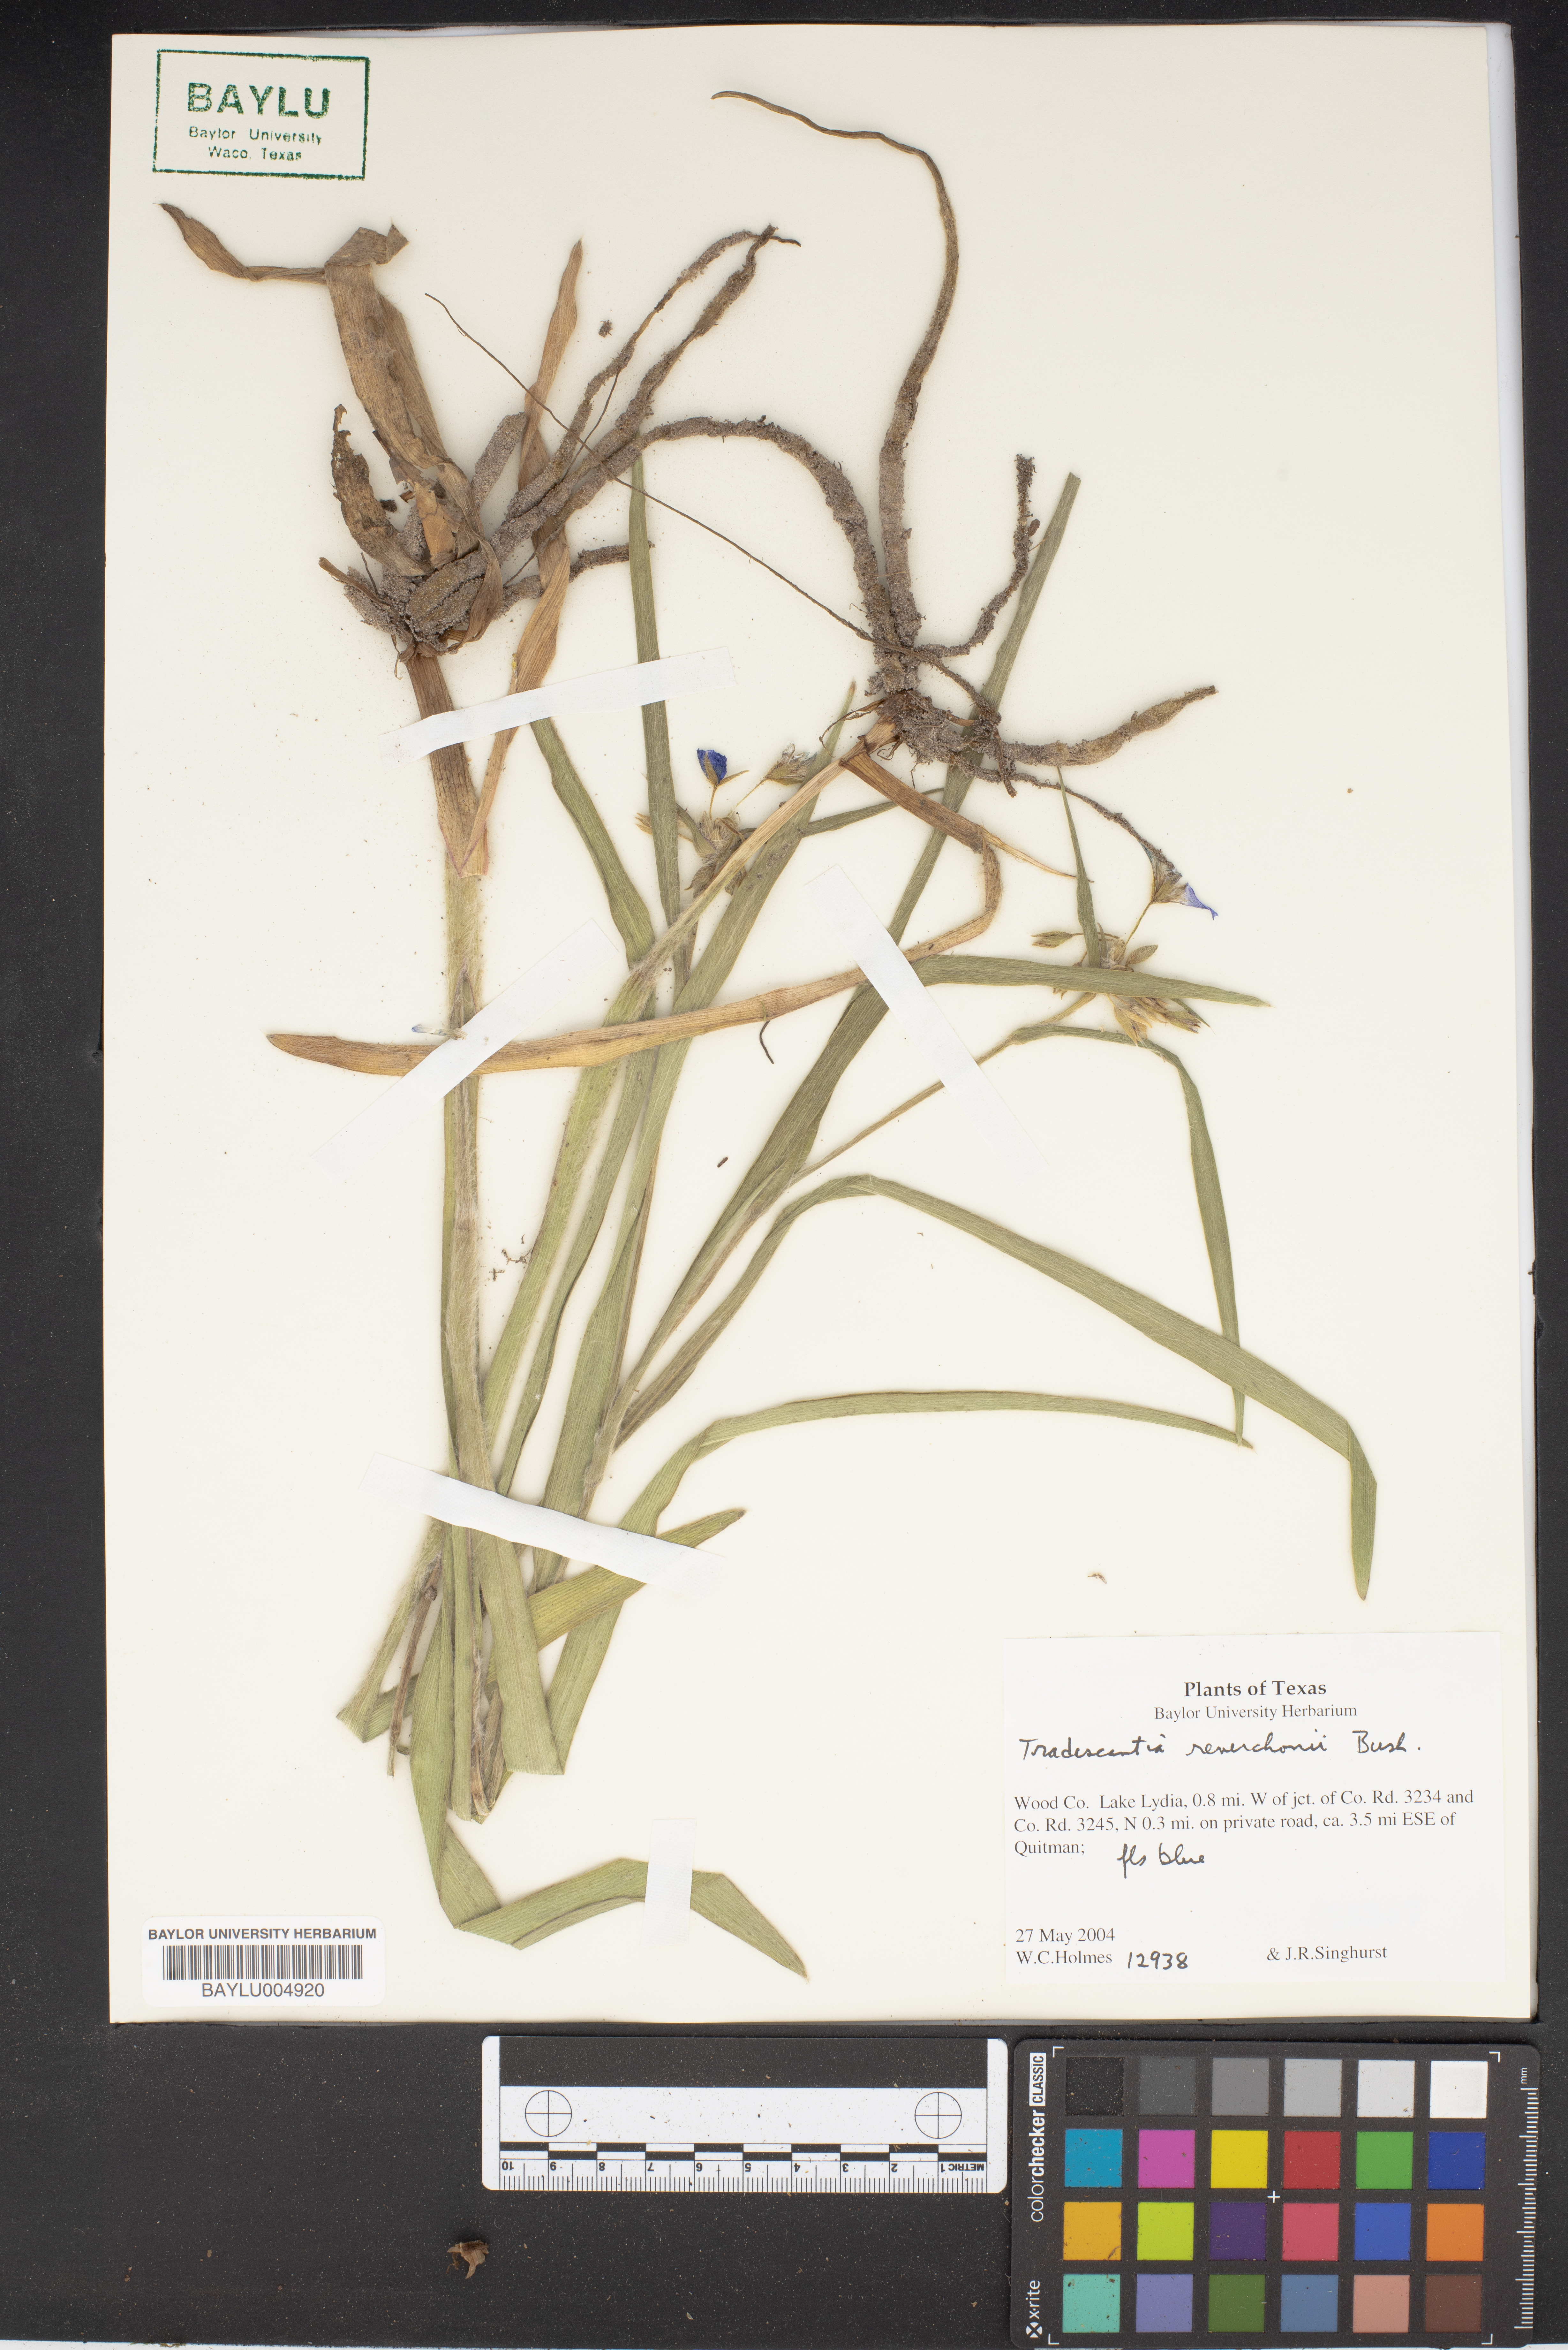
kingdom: Plantae
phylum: Tracheophyta
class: Liliopsida
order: Commelinales
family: Commelinaceae
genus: Tradescantia
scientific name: Tradescantia reverchonii
